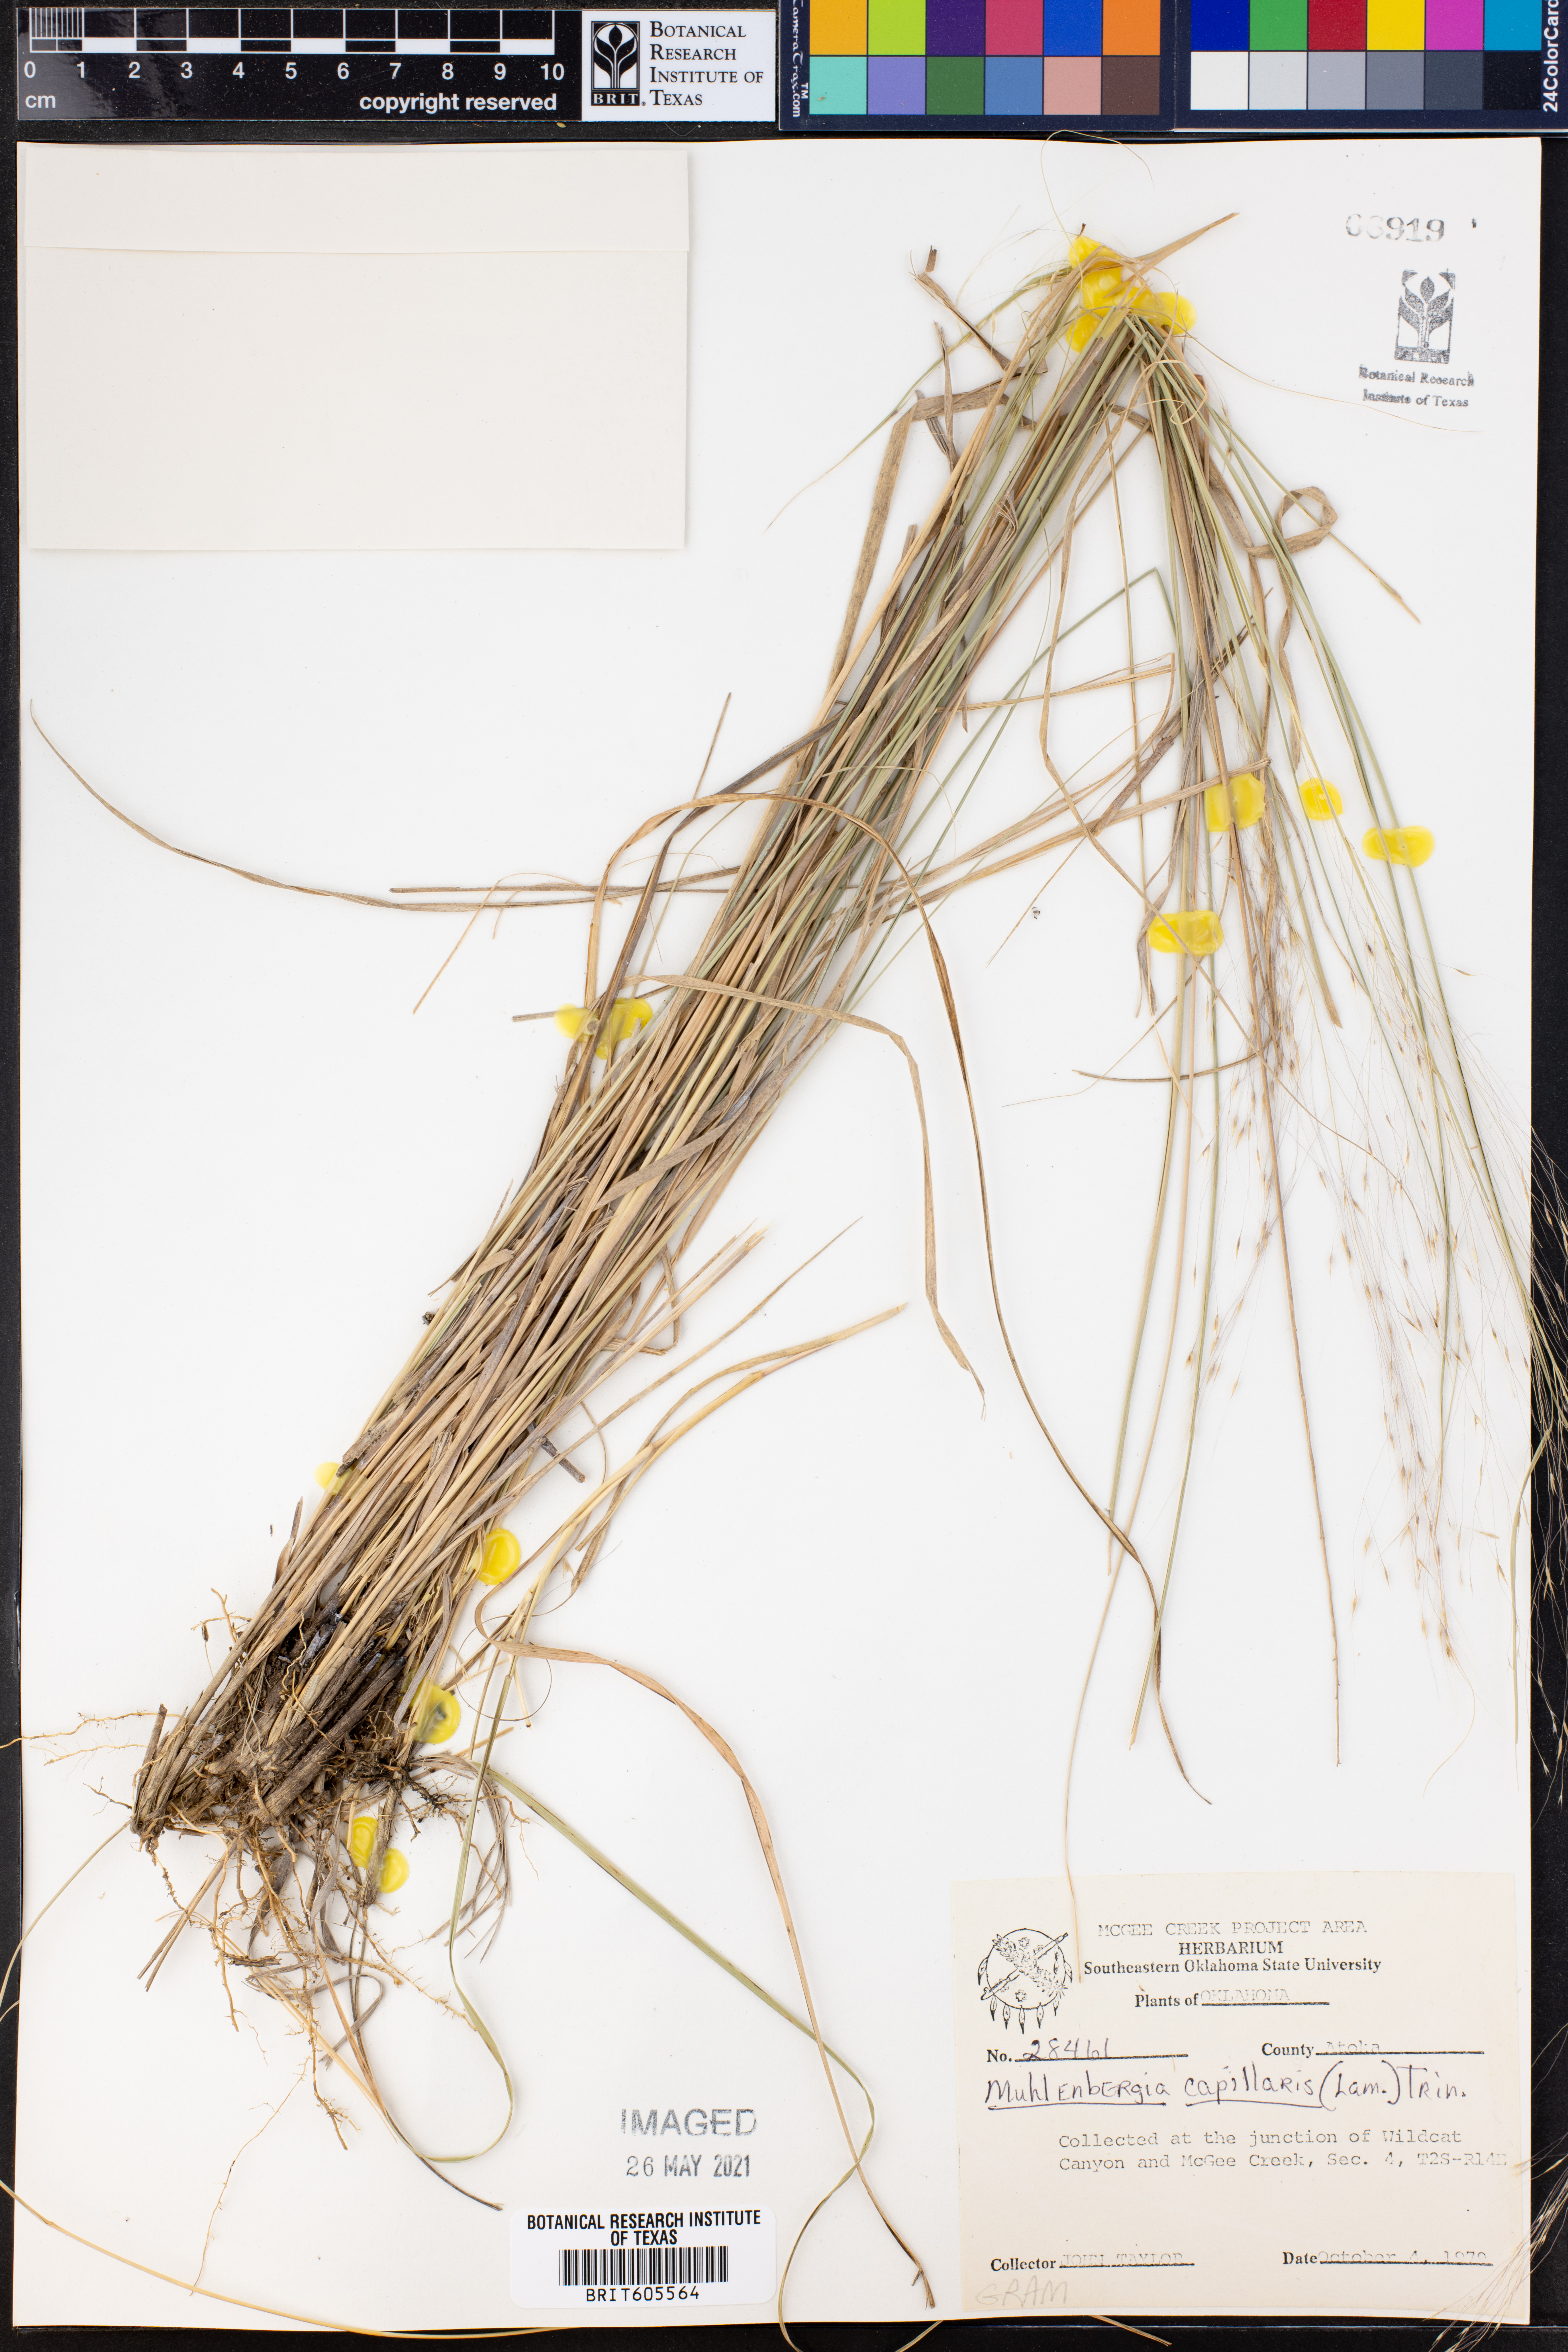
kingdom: Plantae
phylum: Tracheophyta
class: Liliopsida
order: Poales
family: Poaceae
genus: Muhlenbergia
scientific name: Muhlenbergia capillaris
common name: Purple grass
